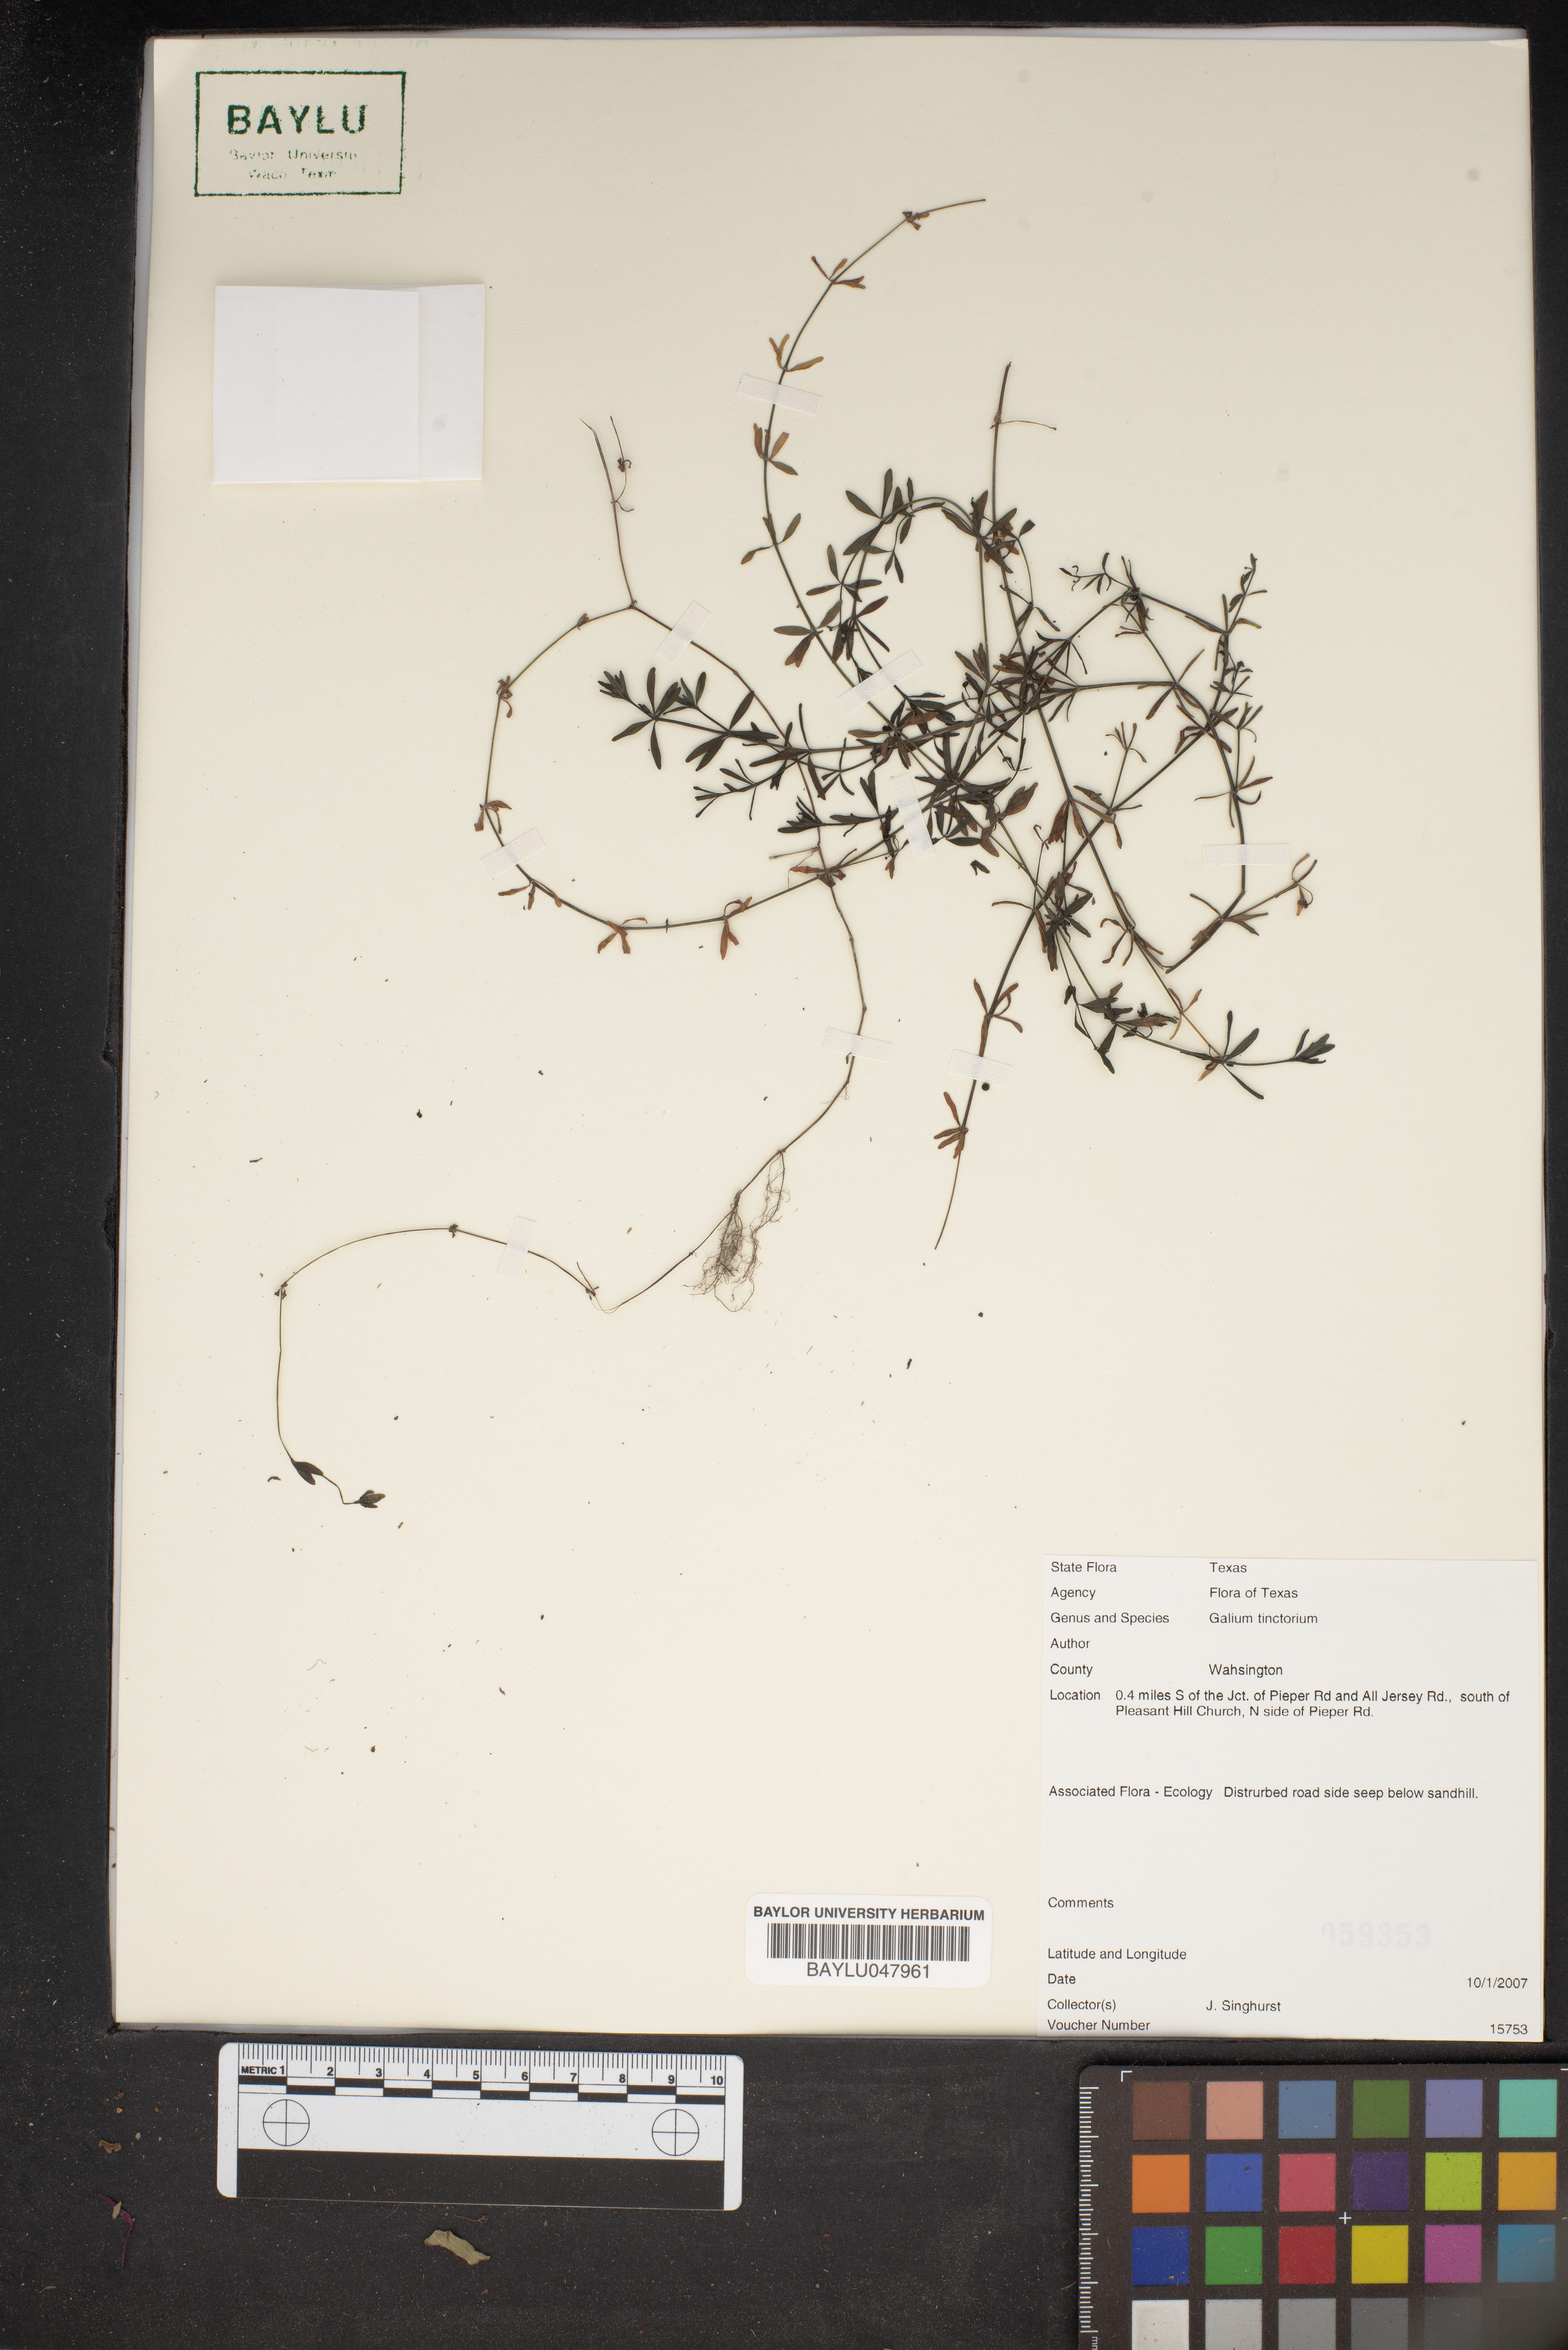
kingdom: Plantae
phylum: Tracheophyta
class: Magnoliopsida
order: Gentianales
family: Rubiaceae
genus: Asperula
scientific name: Asperula tinctoria
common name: Dyer's woodruff
